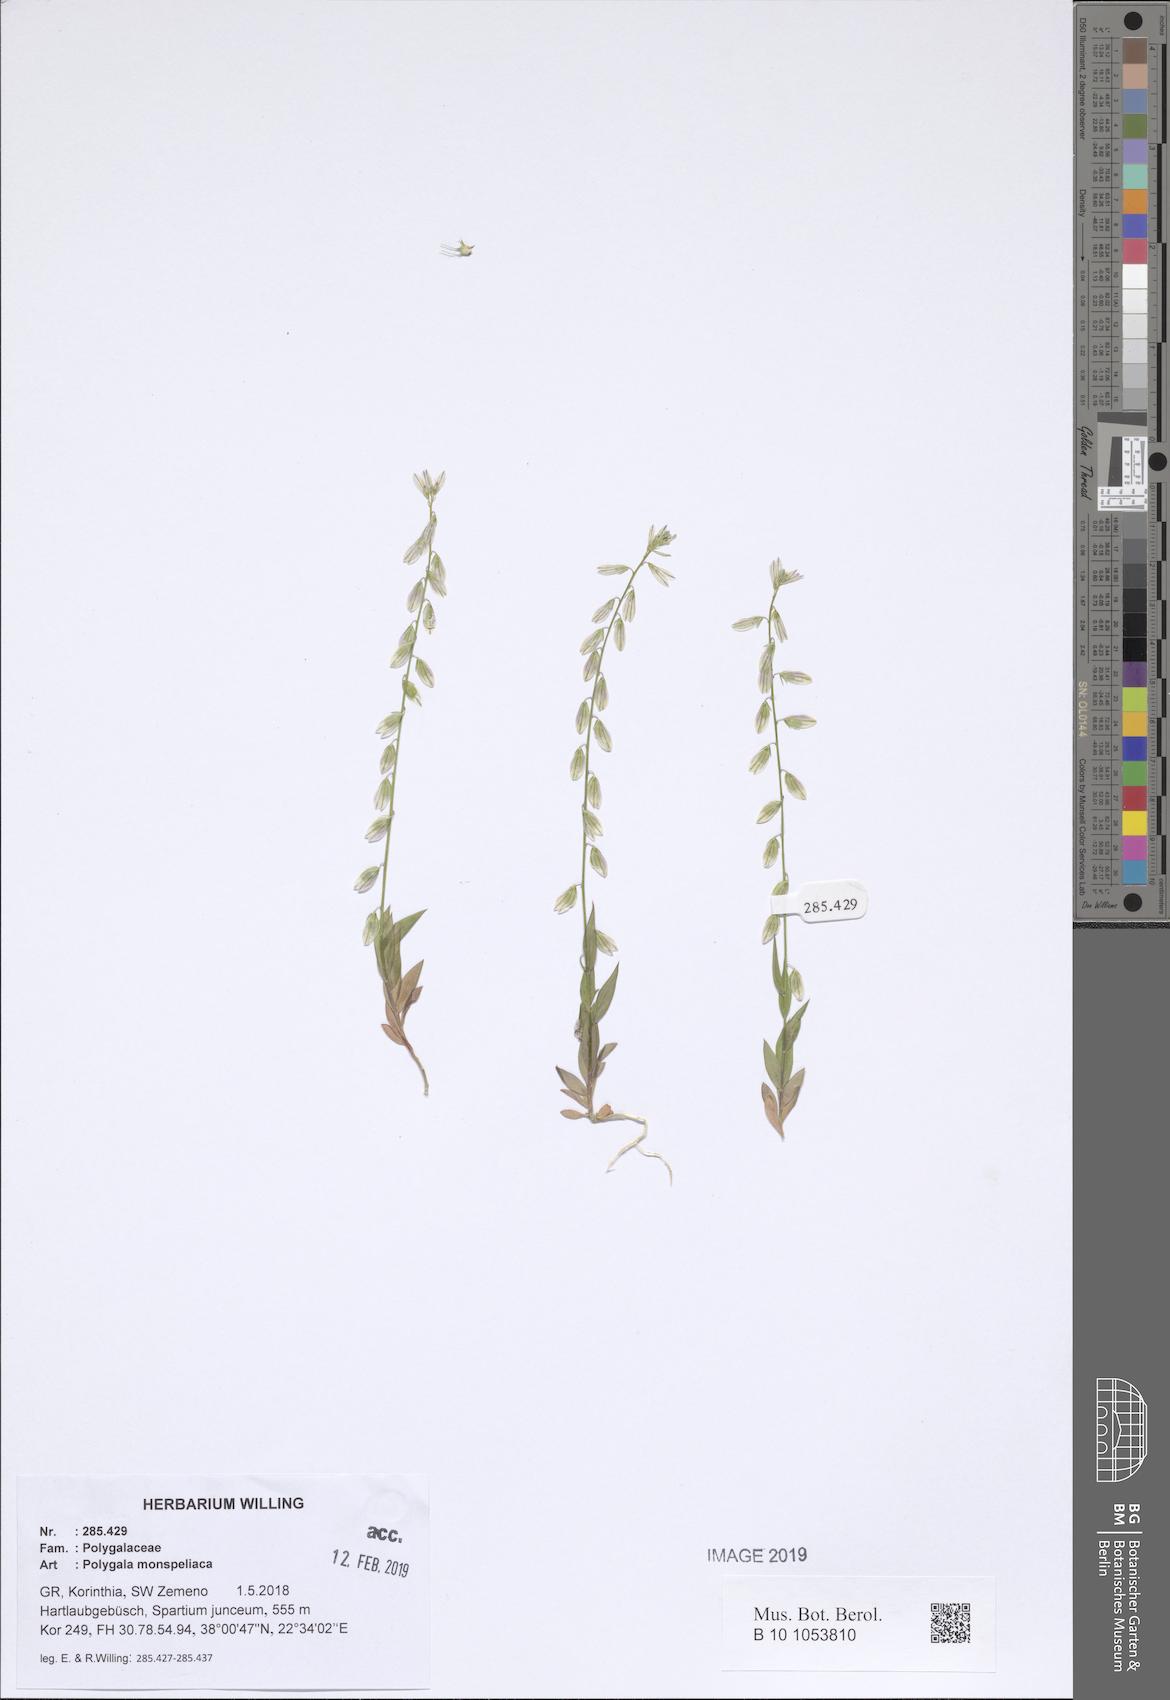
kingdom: Plantae
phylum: Tracheophyta
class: Magnoliopsida
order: Fabales
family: Polygalaceae
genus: Polygala
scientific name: Polygala monspeliaca
